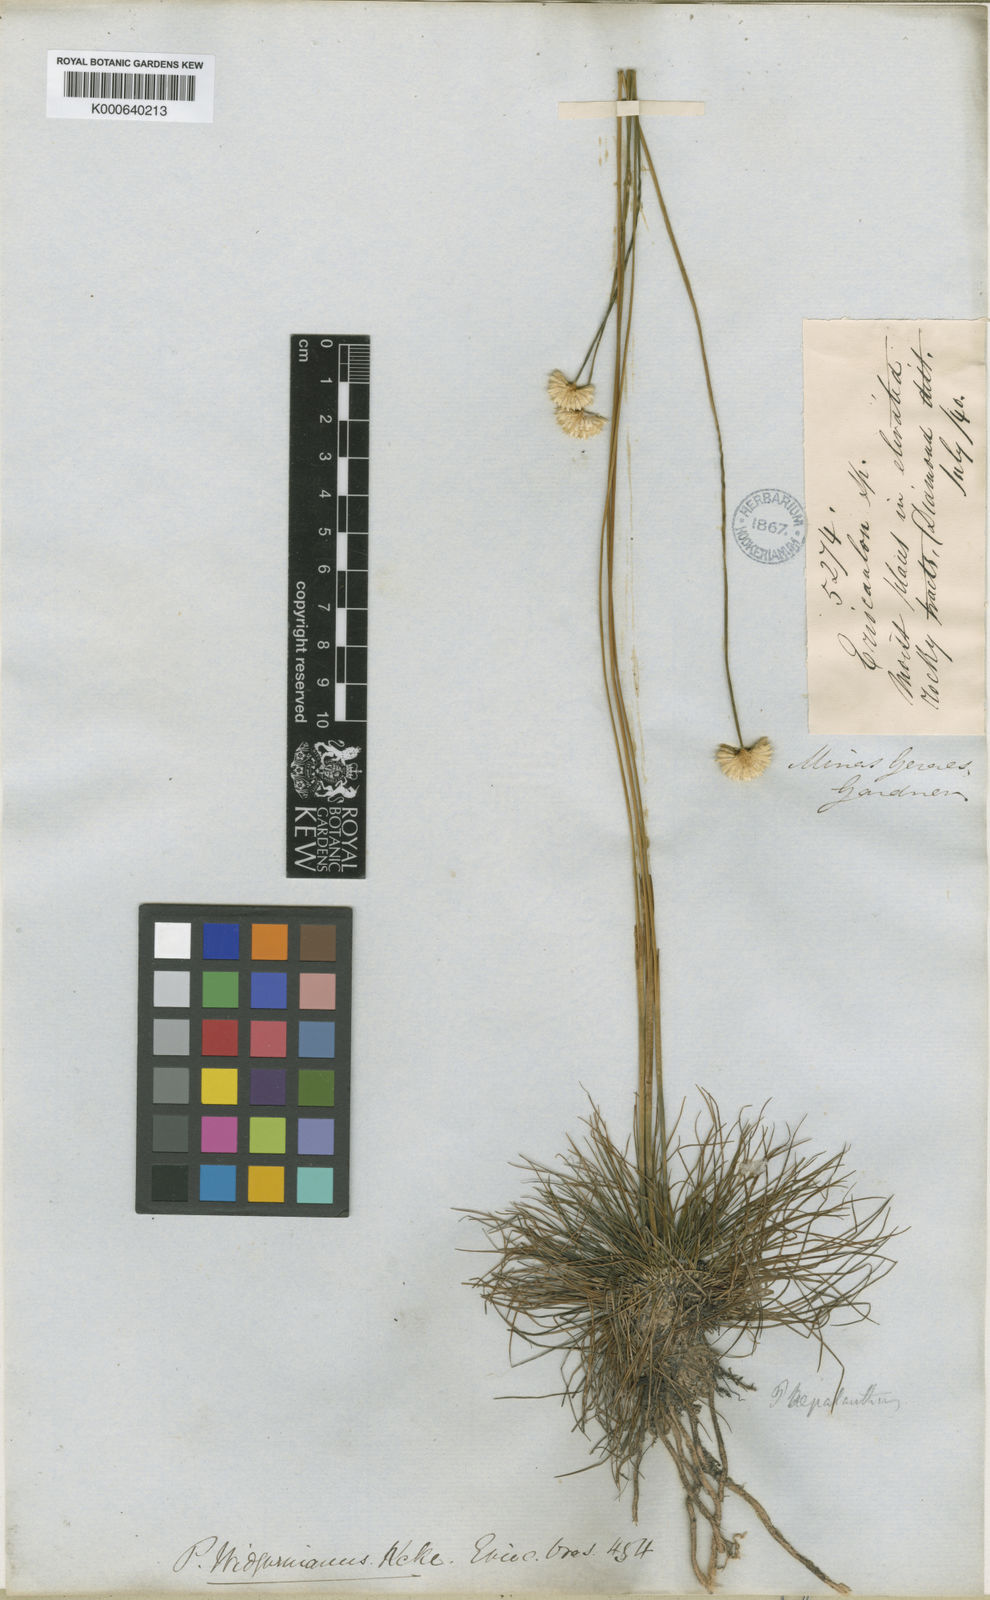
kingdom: Plantae
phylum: Tracheophyta
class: Liliopsida
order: Poales
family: Eriocaulaceae
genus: Syngonanthus
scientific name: Syngonanthus
